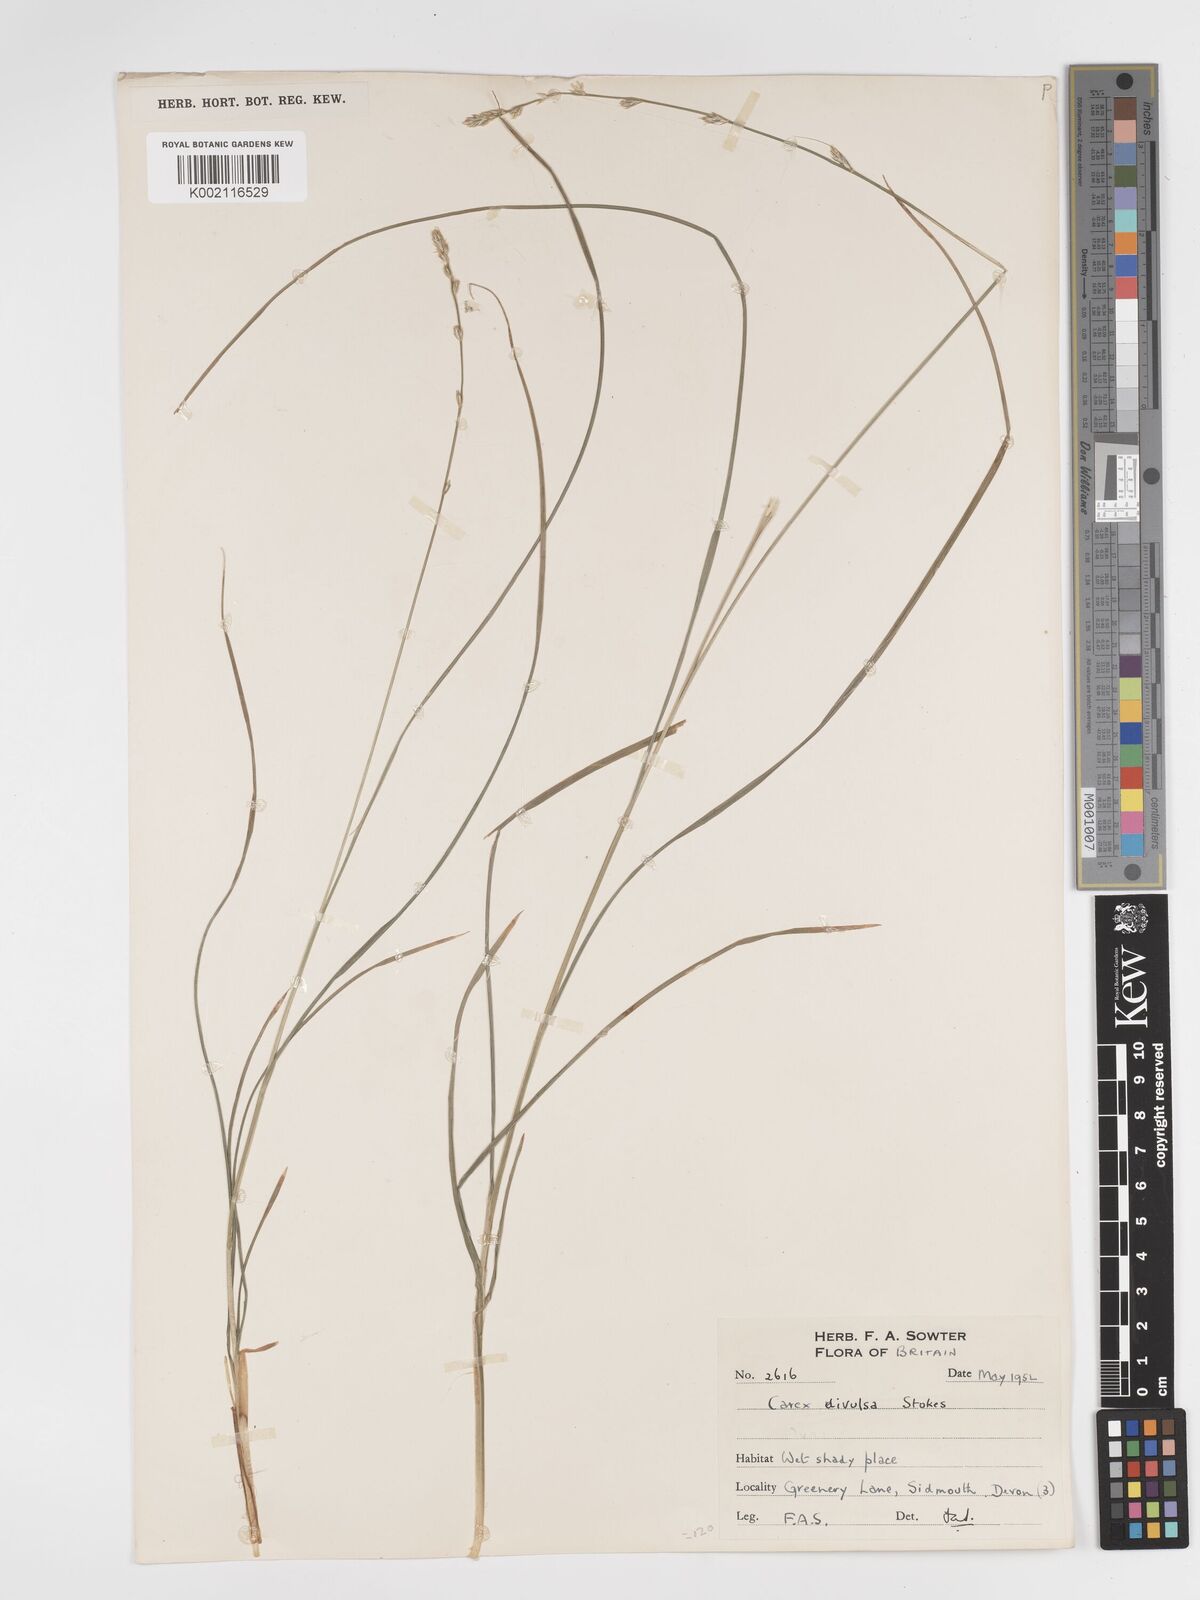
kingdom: Plantae
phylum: Tracheophyta
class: Liliopsida
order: Poales
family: Cyperaceae
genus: Carex
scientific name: Carex divulsa
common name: Grassland sedge
